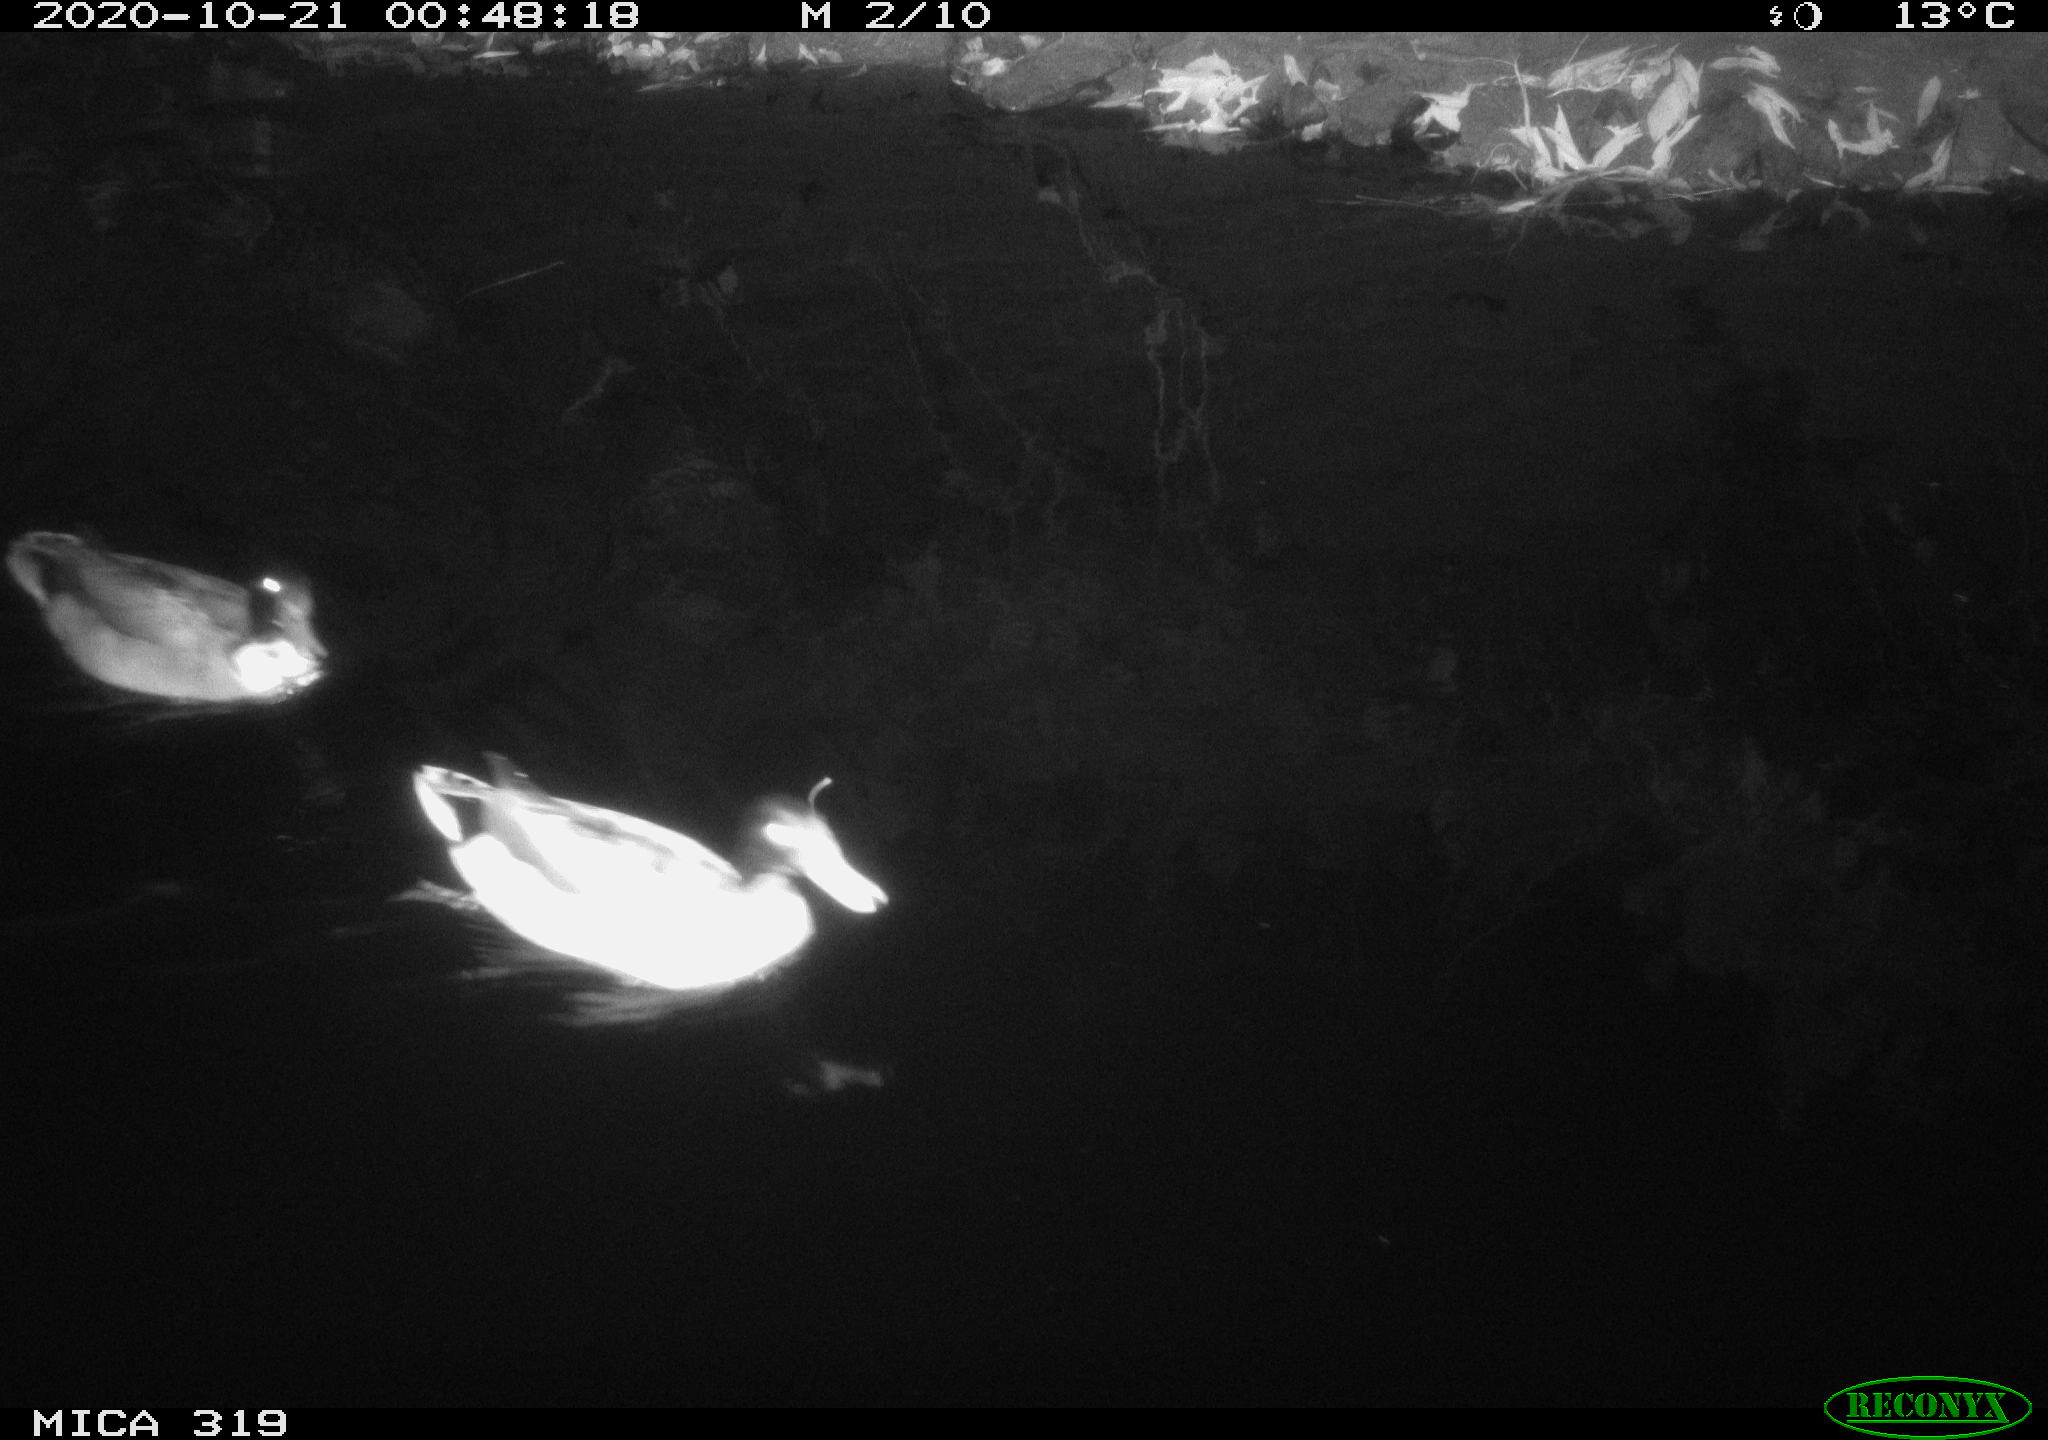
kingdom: Animalia
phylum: Chordata
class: Aves
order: Anseriformes
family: Anatidae
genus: Anas
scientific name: Anas platyrhynchos
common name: Mallard
